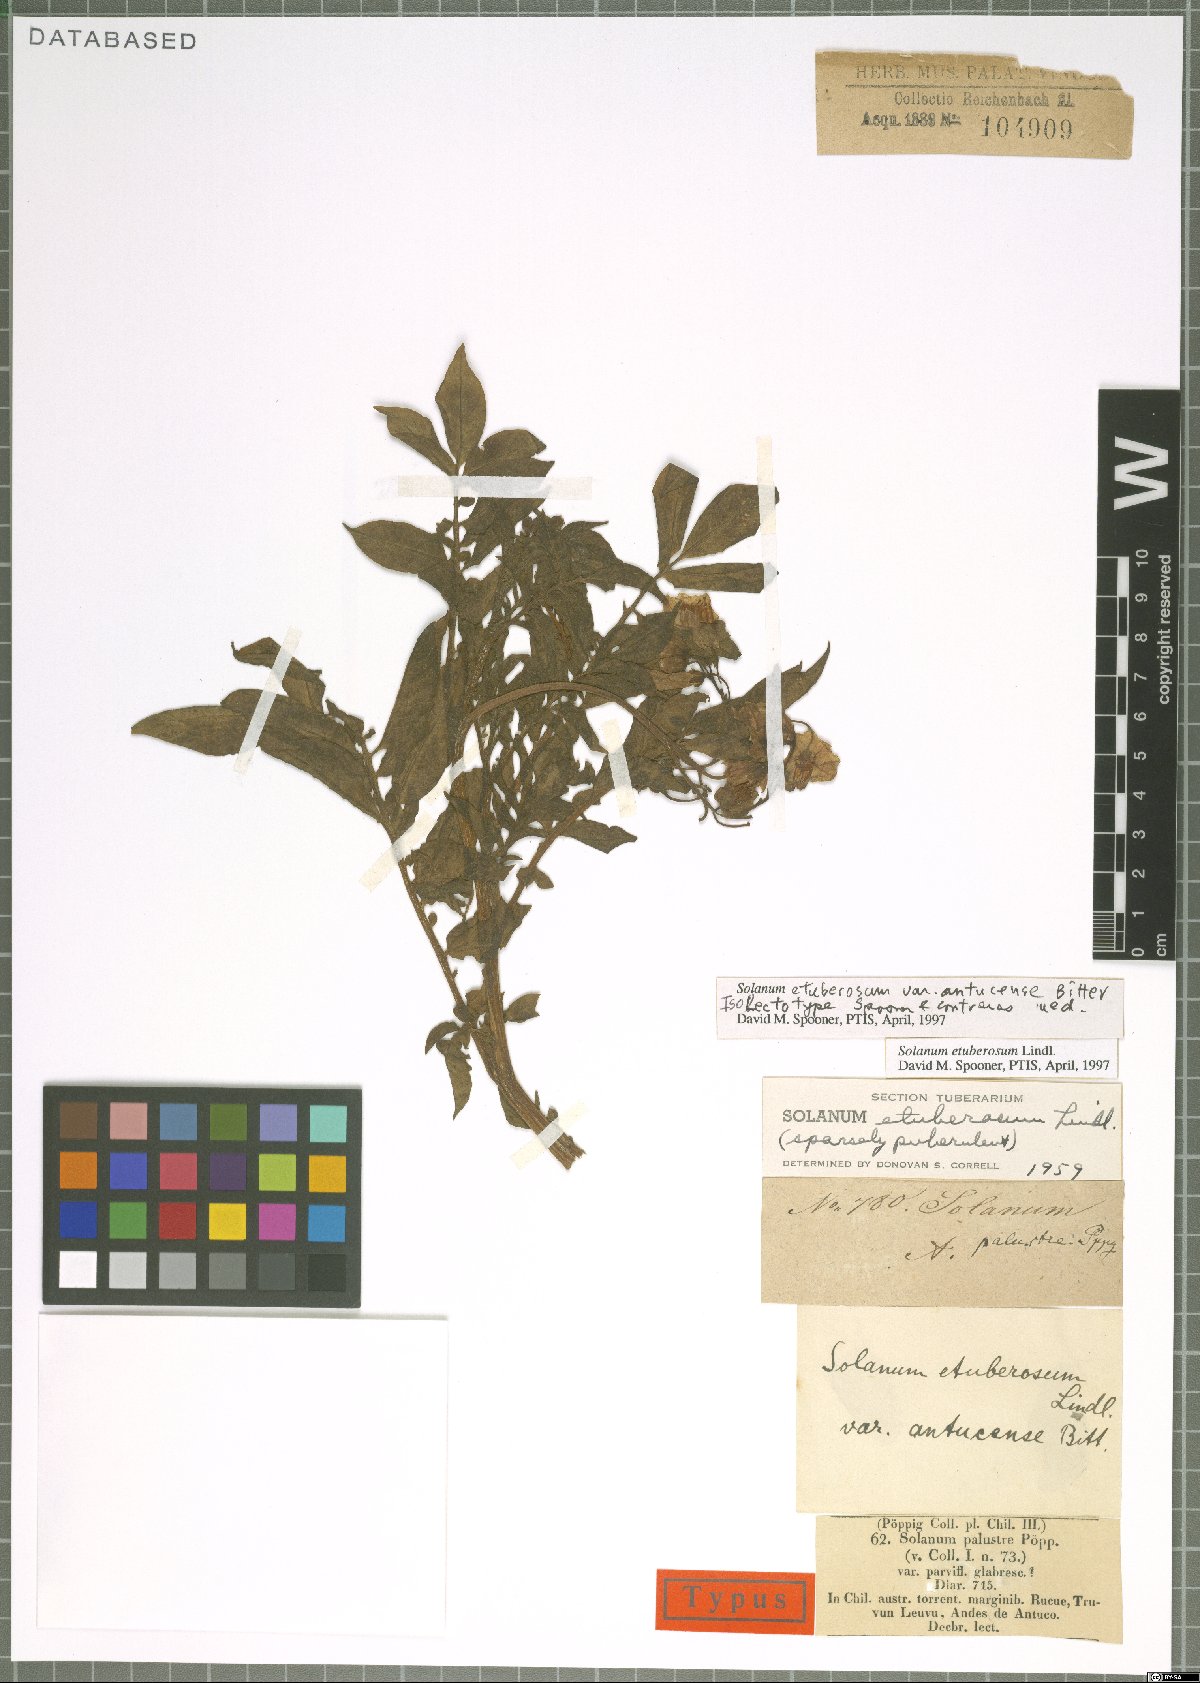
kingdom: Plantae
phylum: Tracheophyta
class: Magnoliopsida
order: Solanales
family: Solanaceae
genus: Solanum
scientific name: Solanum etuberosum
